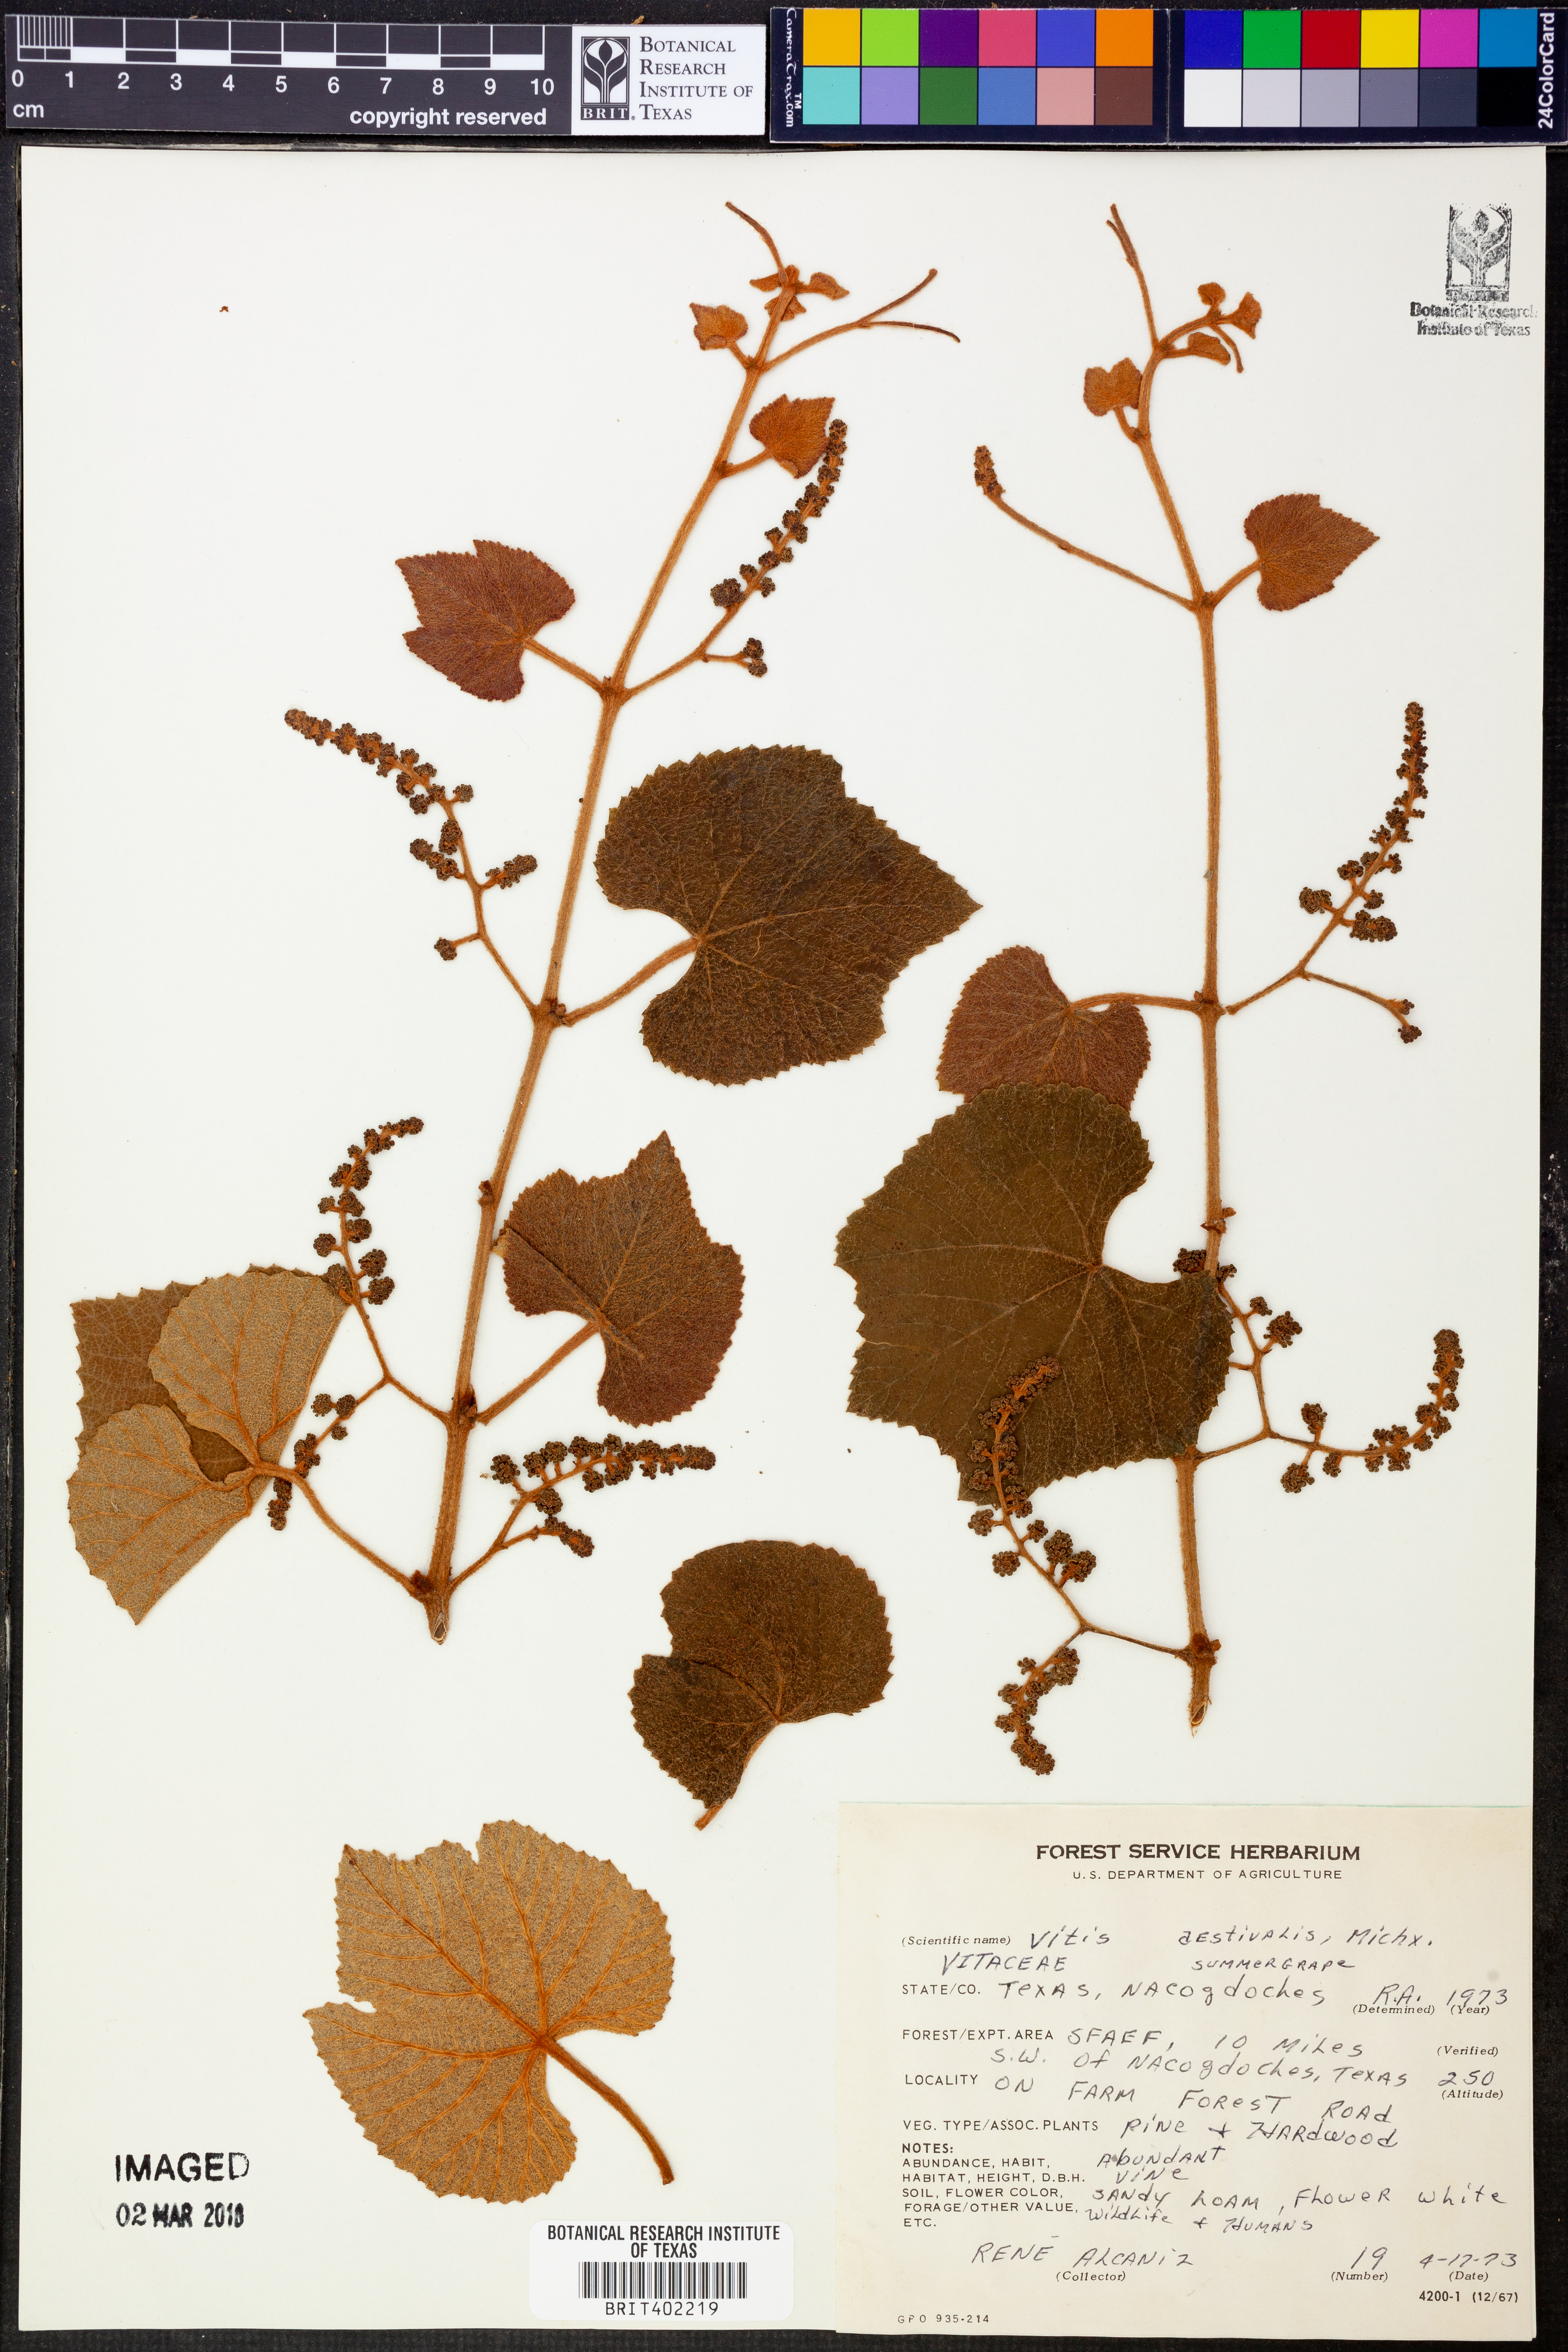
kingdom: Plantae
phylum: Tracheophyta
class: Magnoliopsida
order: Vitales
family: Vitaceae
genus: Vitis
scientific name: Vitis aestivalis
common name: Pigeon grape
